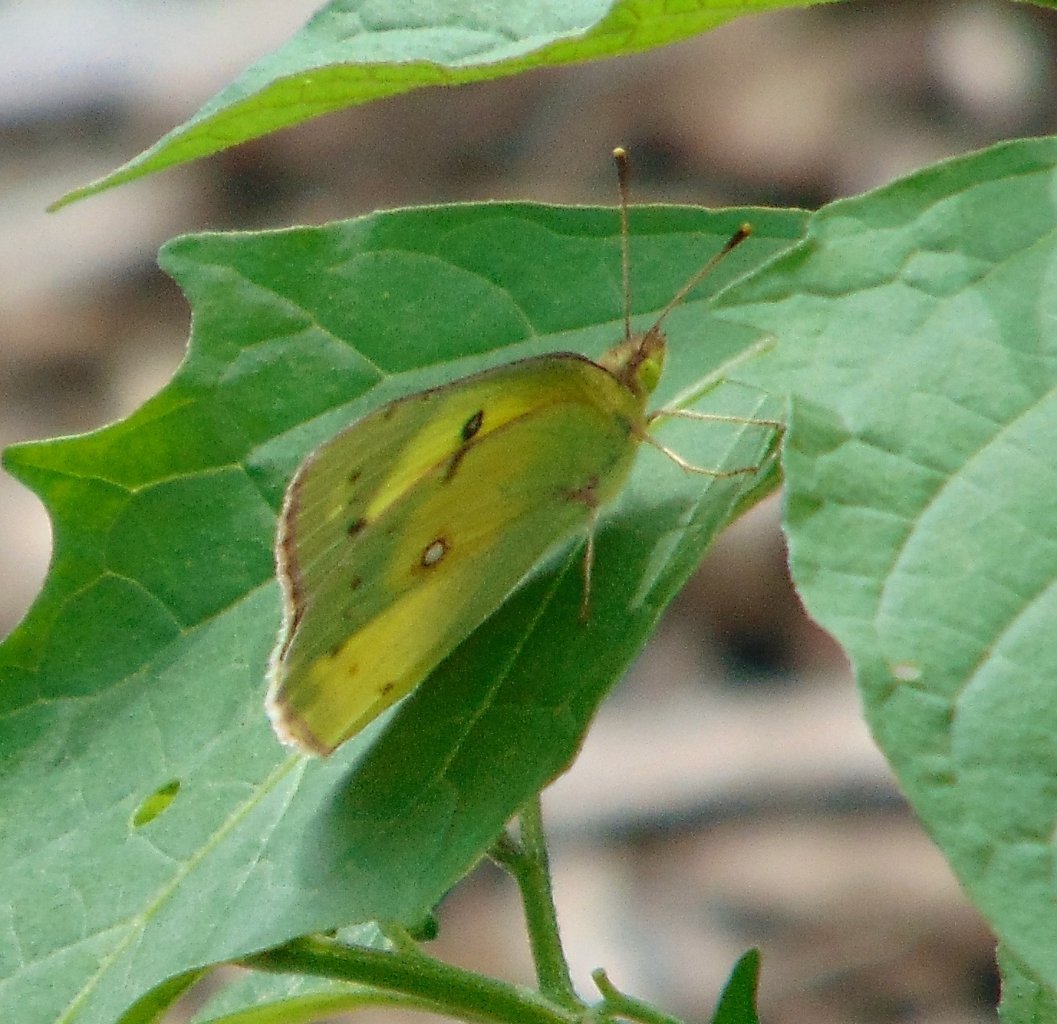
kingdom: Animalia
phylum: Arthropoda
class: Insecta
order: Lepidoptera
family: Pieridae
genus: Colias
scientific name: Colias philodice
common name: Clouded Sulphur
